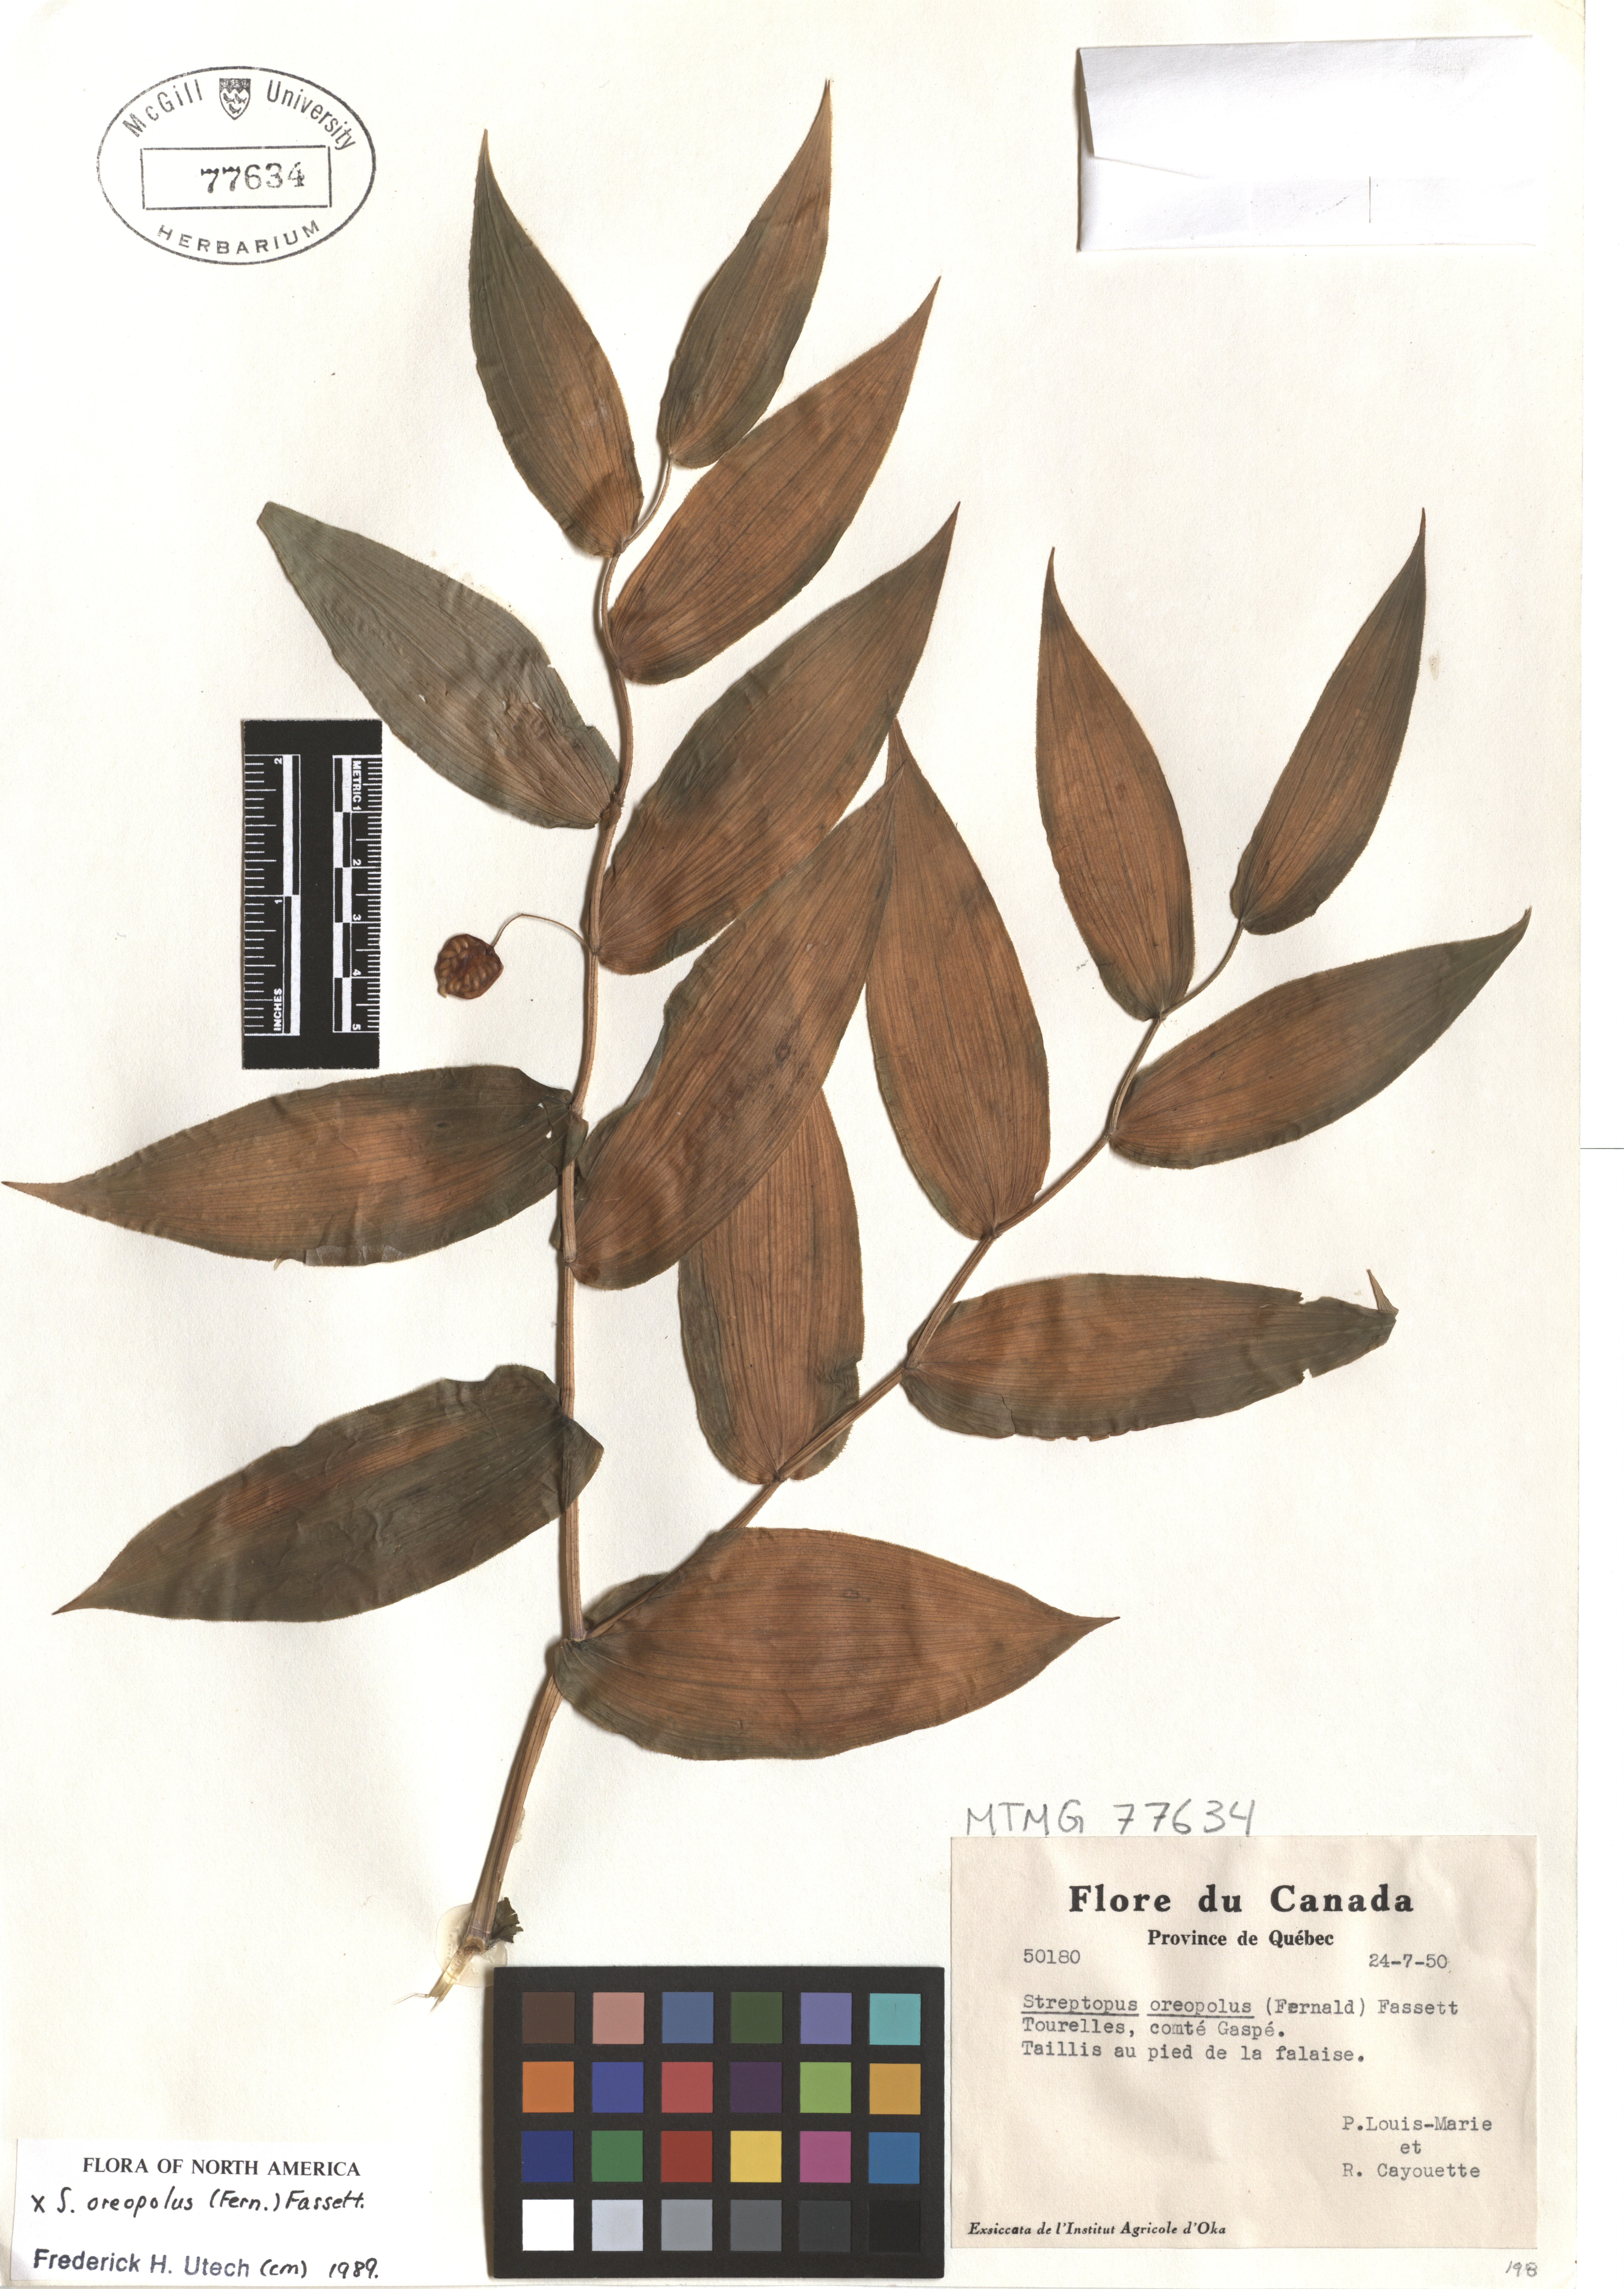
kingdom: Plantae
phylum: Tracheophyta
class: Liliopsida
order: Liliales
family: Liliaceae
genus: Streptopus
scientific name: Streptopus oreopolus
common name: Hybrid twisted-stalk
